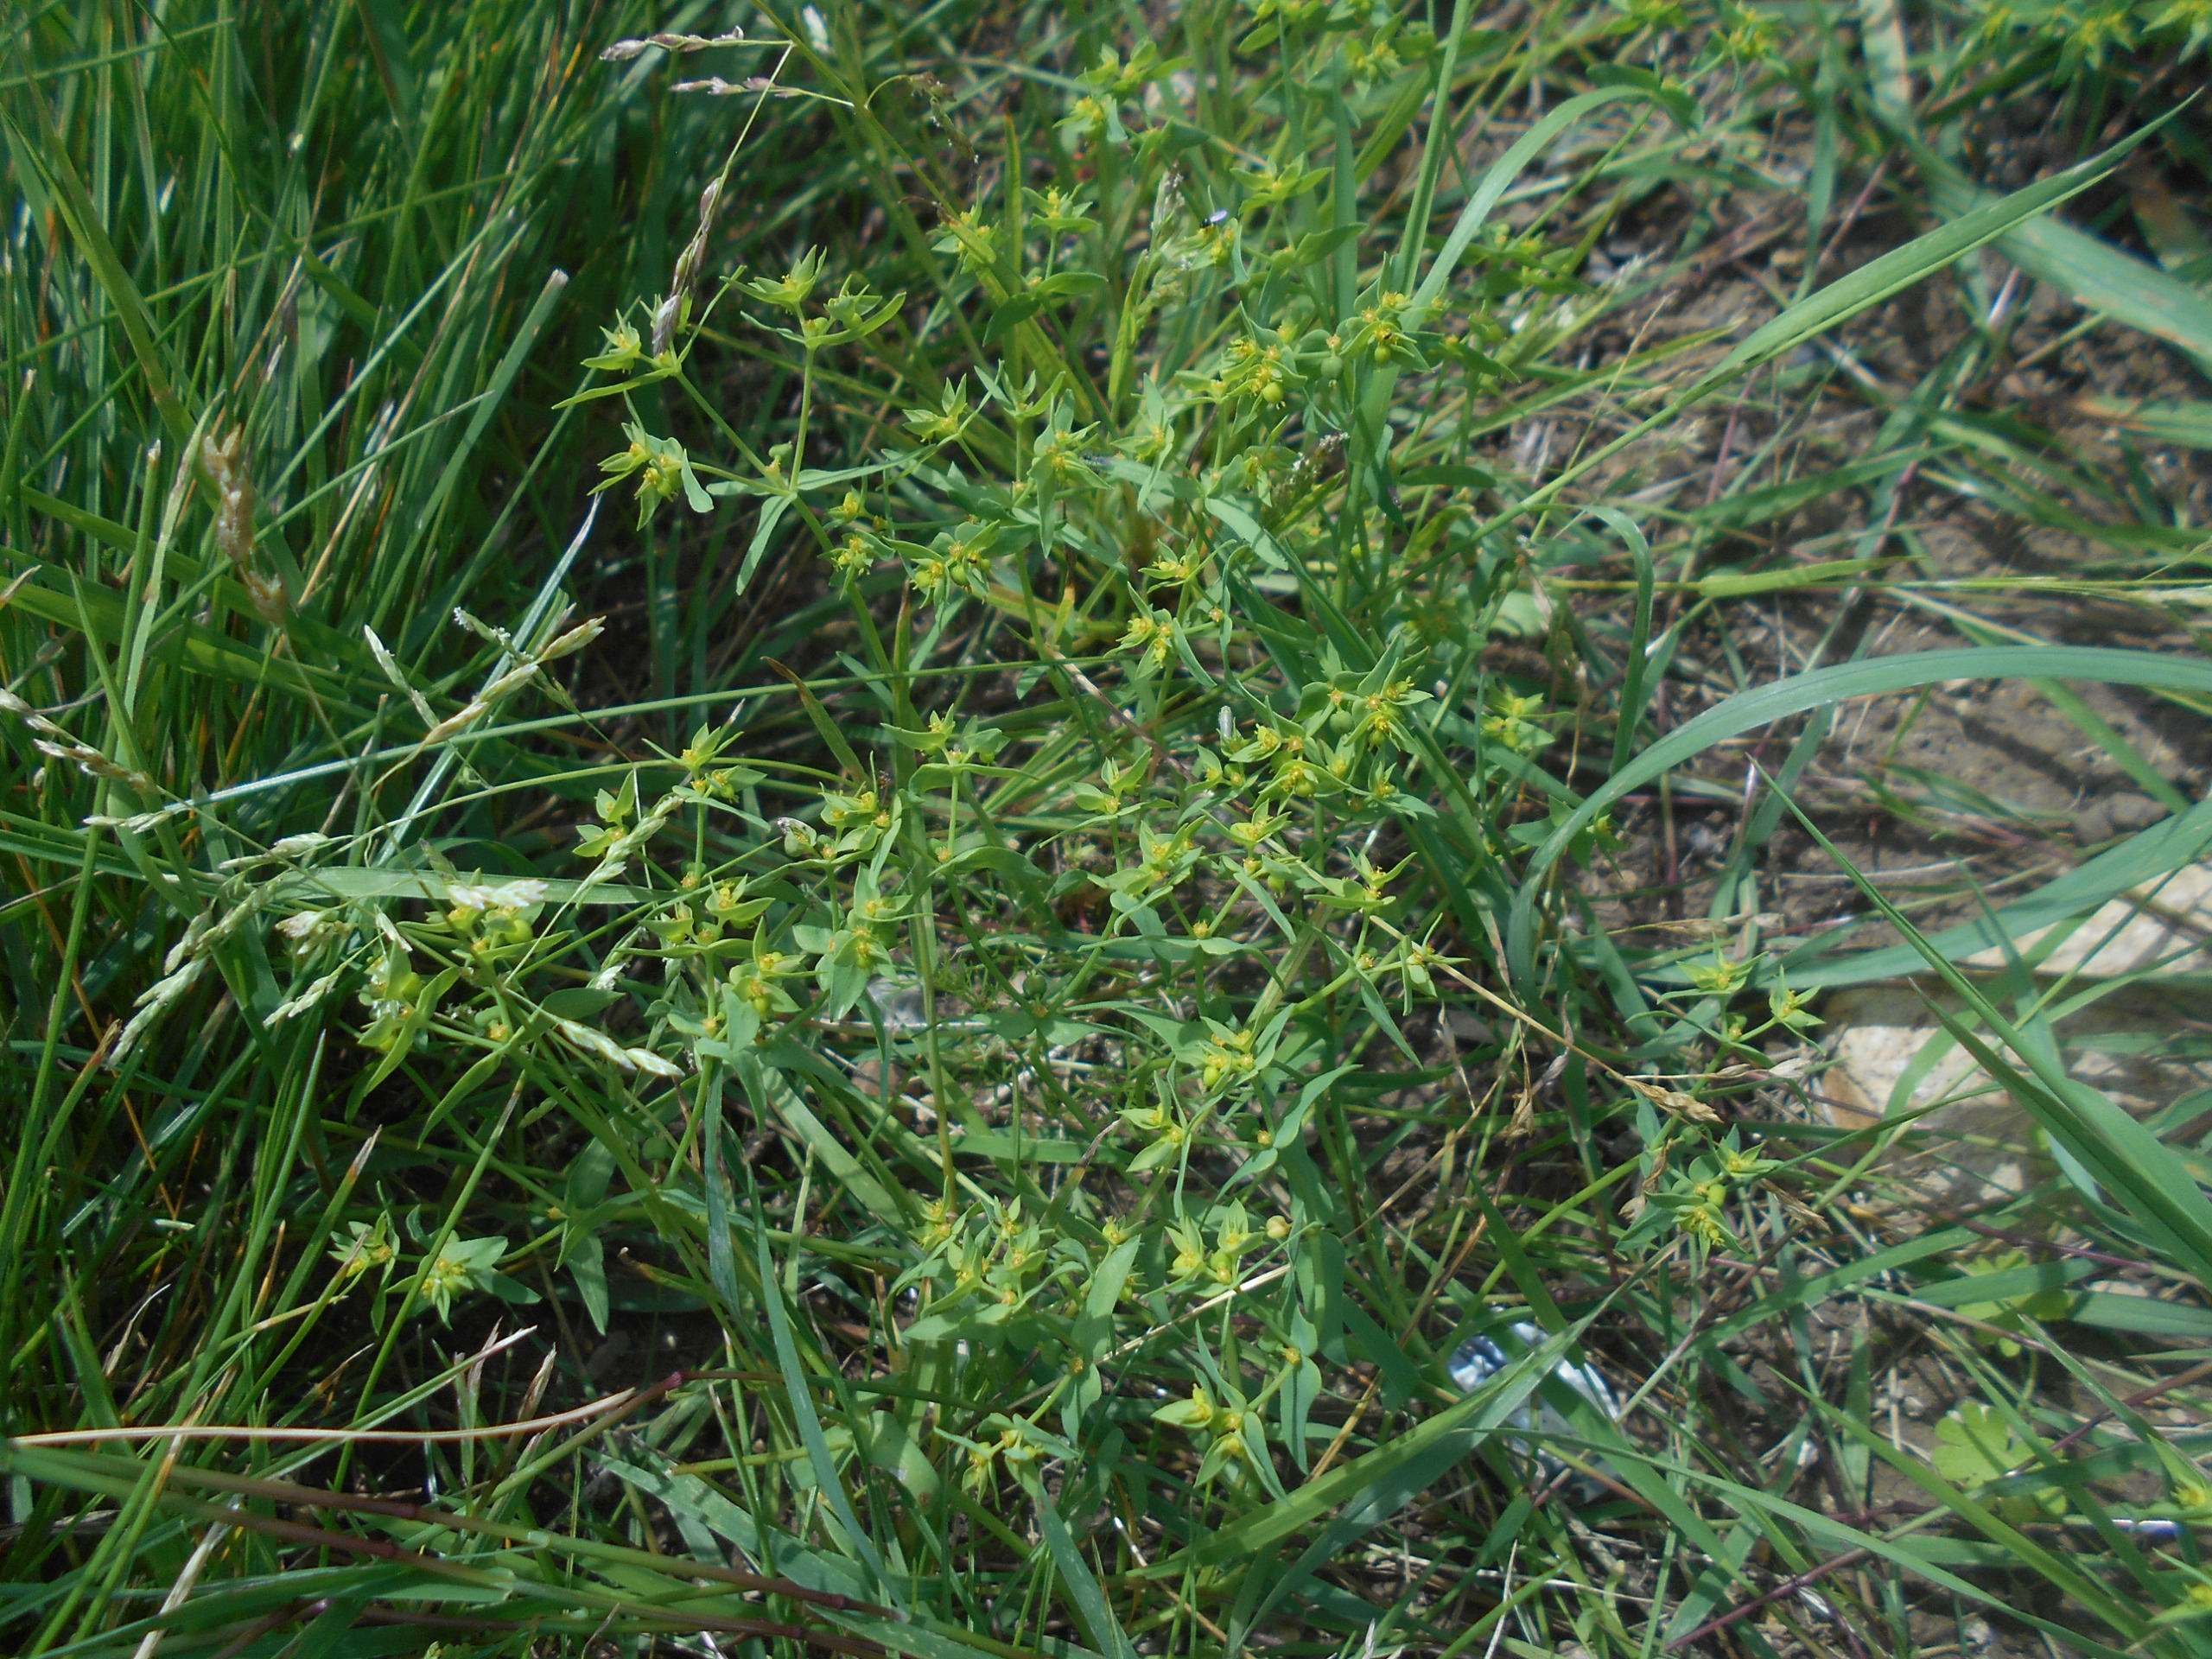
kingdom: Plantae
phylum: Tracheophyta
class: Magnoliopsida
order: Malpighiales
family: Euphorbiaceae
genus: Euphorbia
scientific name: Euphorbia exigua
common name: Liden vortemælk
